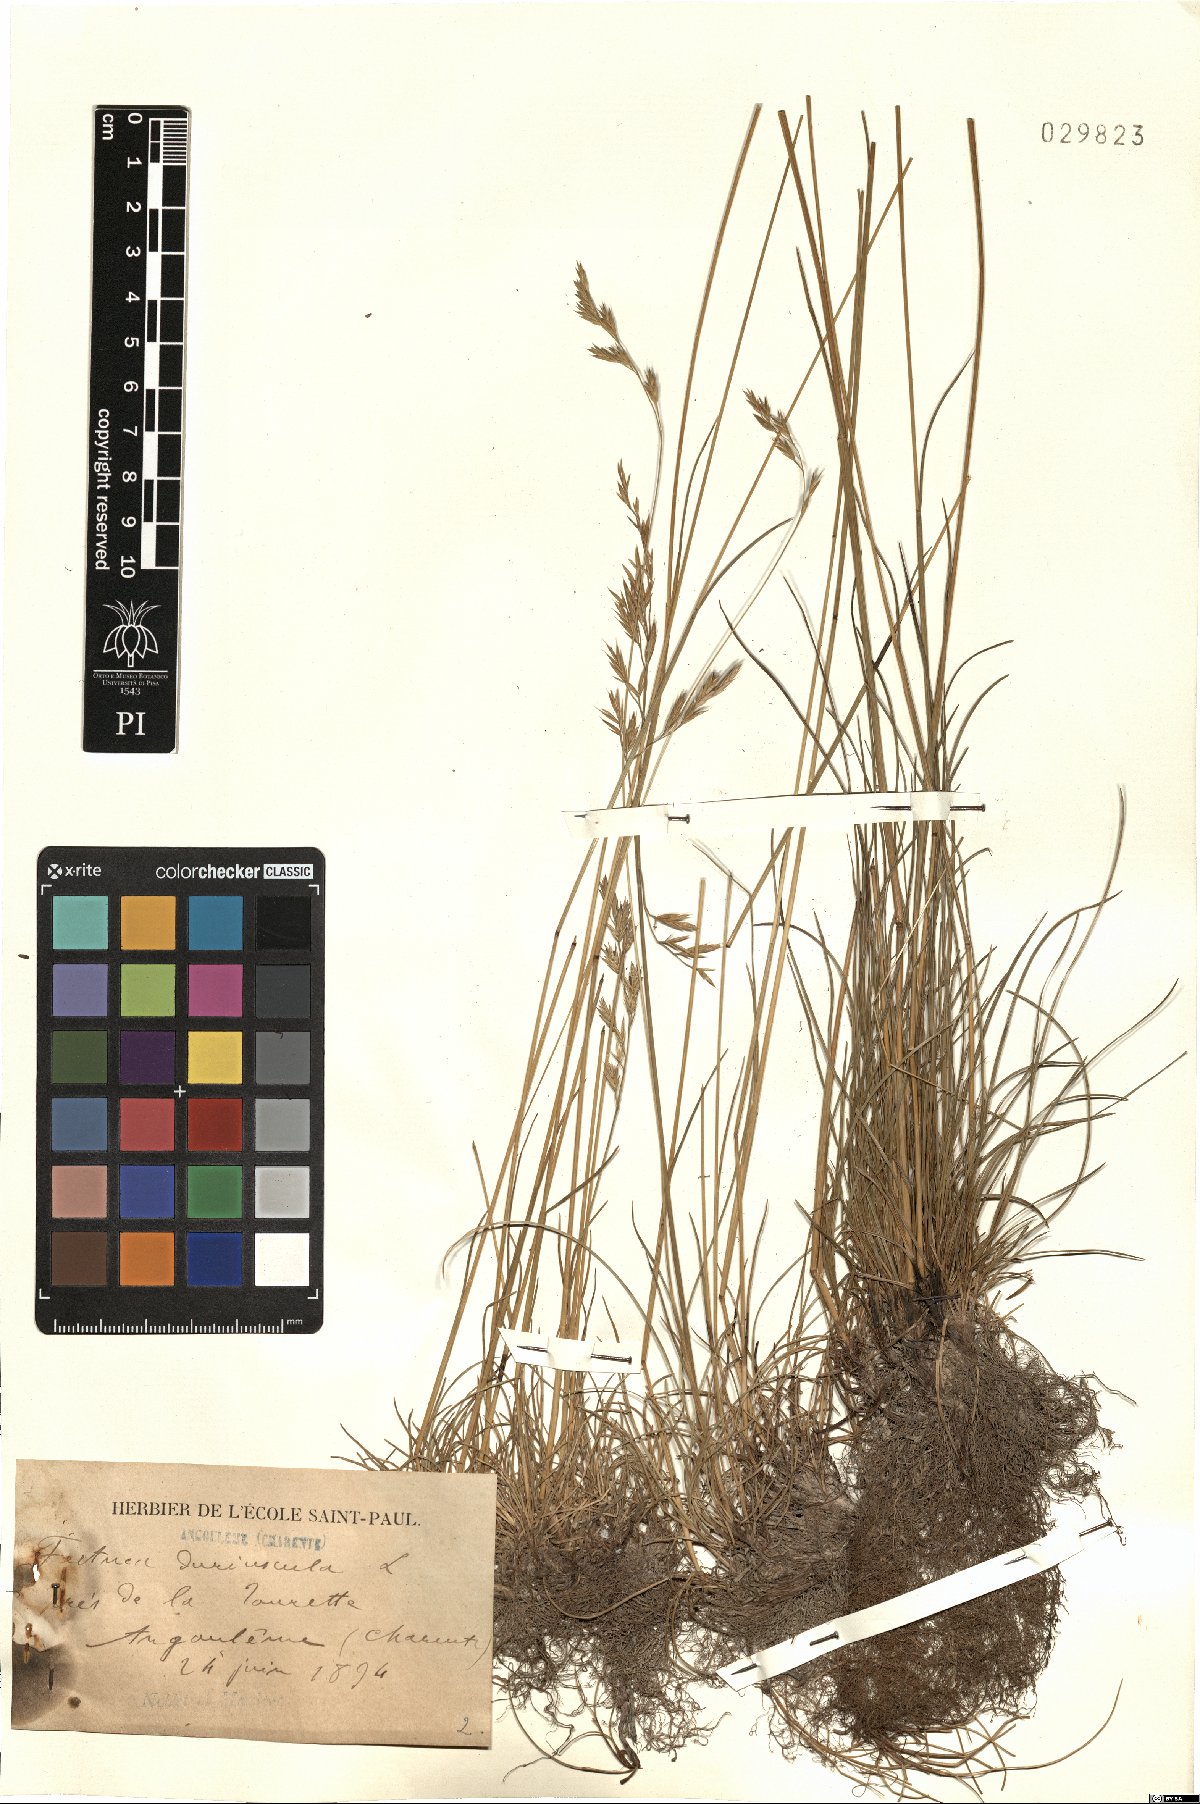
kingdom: Plantae
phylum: Tracheophyta
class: Liliopsida
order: Poales
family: Poaceae
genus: Festuca
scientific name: Festuca rubra
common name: Red fescue
